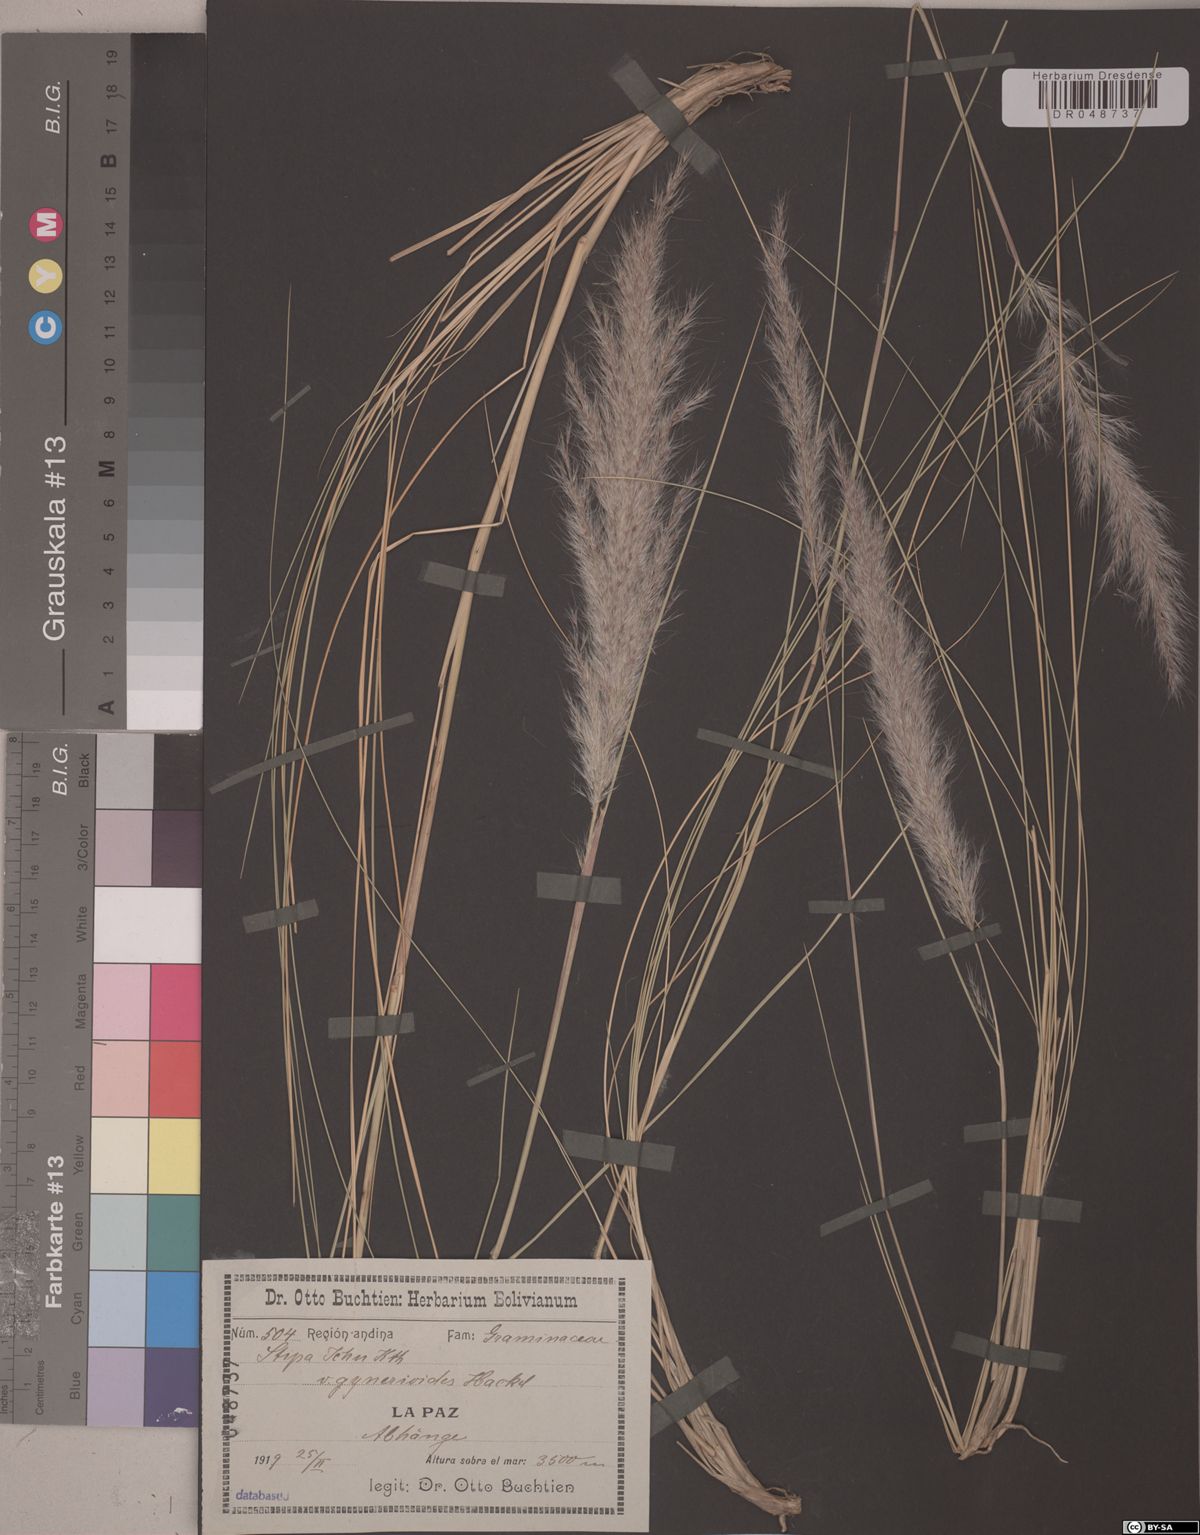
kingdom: Plantae
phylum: Tracheophyta
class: Liliopsida
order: Poales
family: Poaceae
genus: Jarava
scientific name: Jarava ichu
